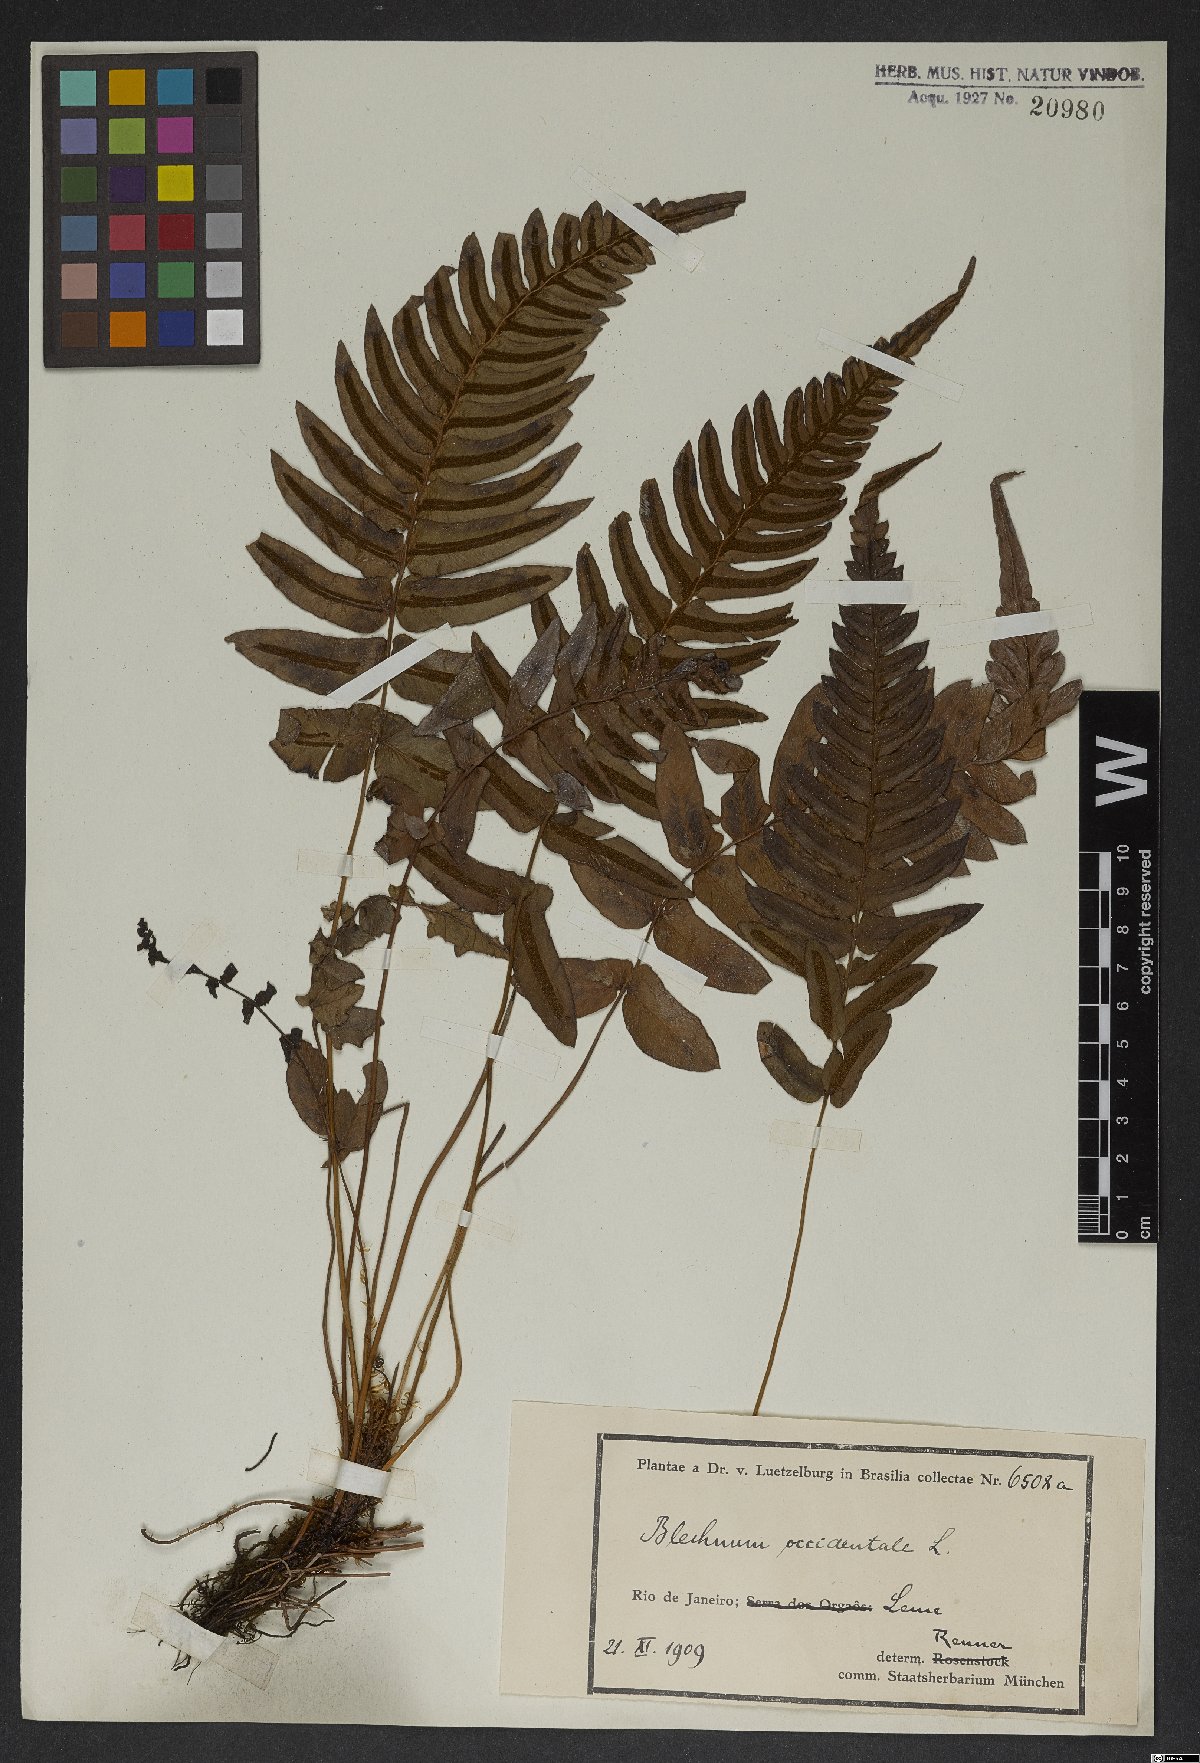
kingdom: Plantae
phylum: Tracheophyta
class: Polypodiopsida
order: Polypodiales
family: Blechnaceae
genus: Blechnum
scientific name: Blechnum occidentale
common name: Hammock fern
